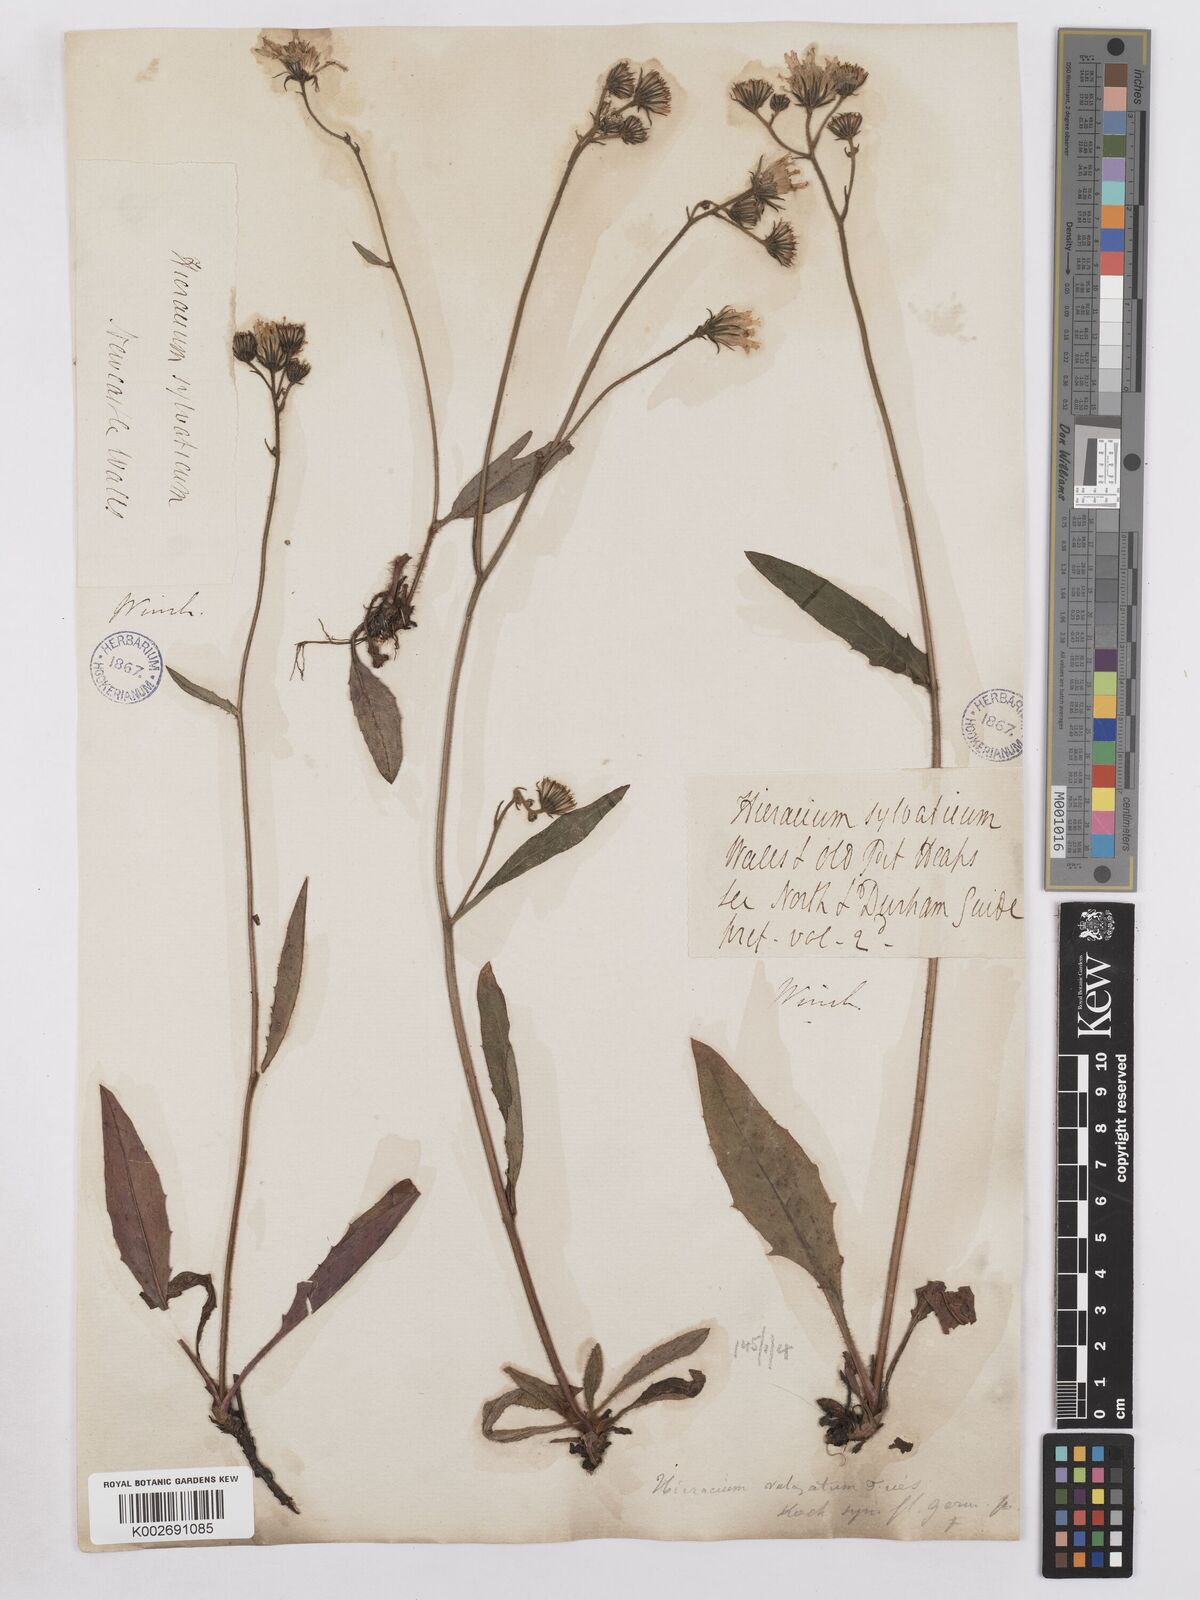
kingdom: Plantae
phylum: Tracheophyta
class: Magnoliopsida
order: Asterales
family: Asteraceae
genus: Hieracium
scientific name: Hieracium lachenalii
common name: Common hawkweed
